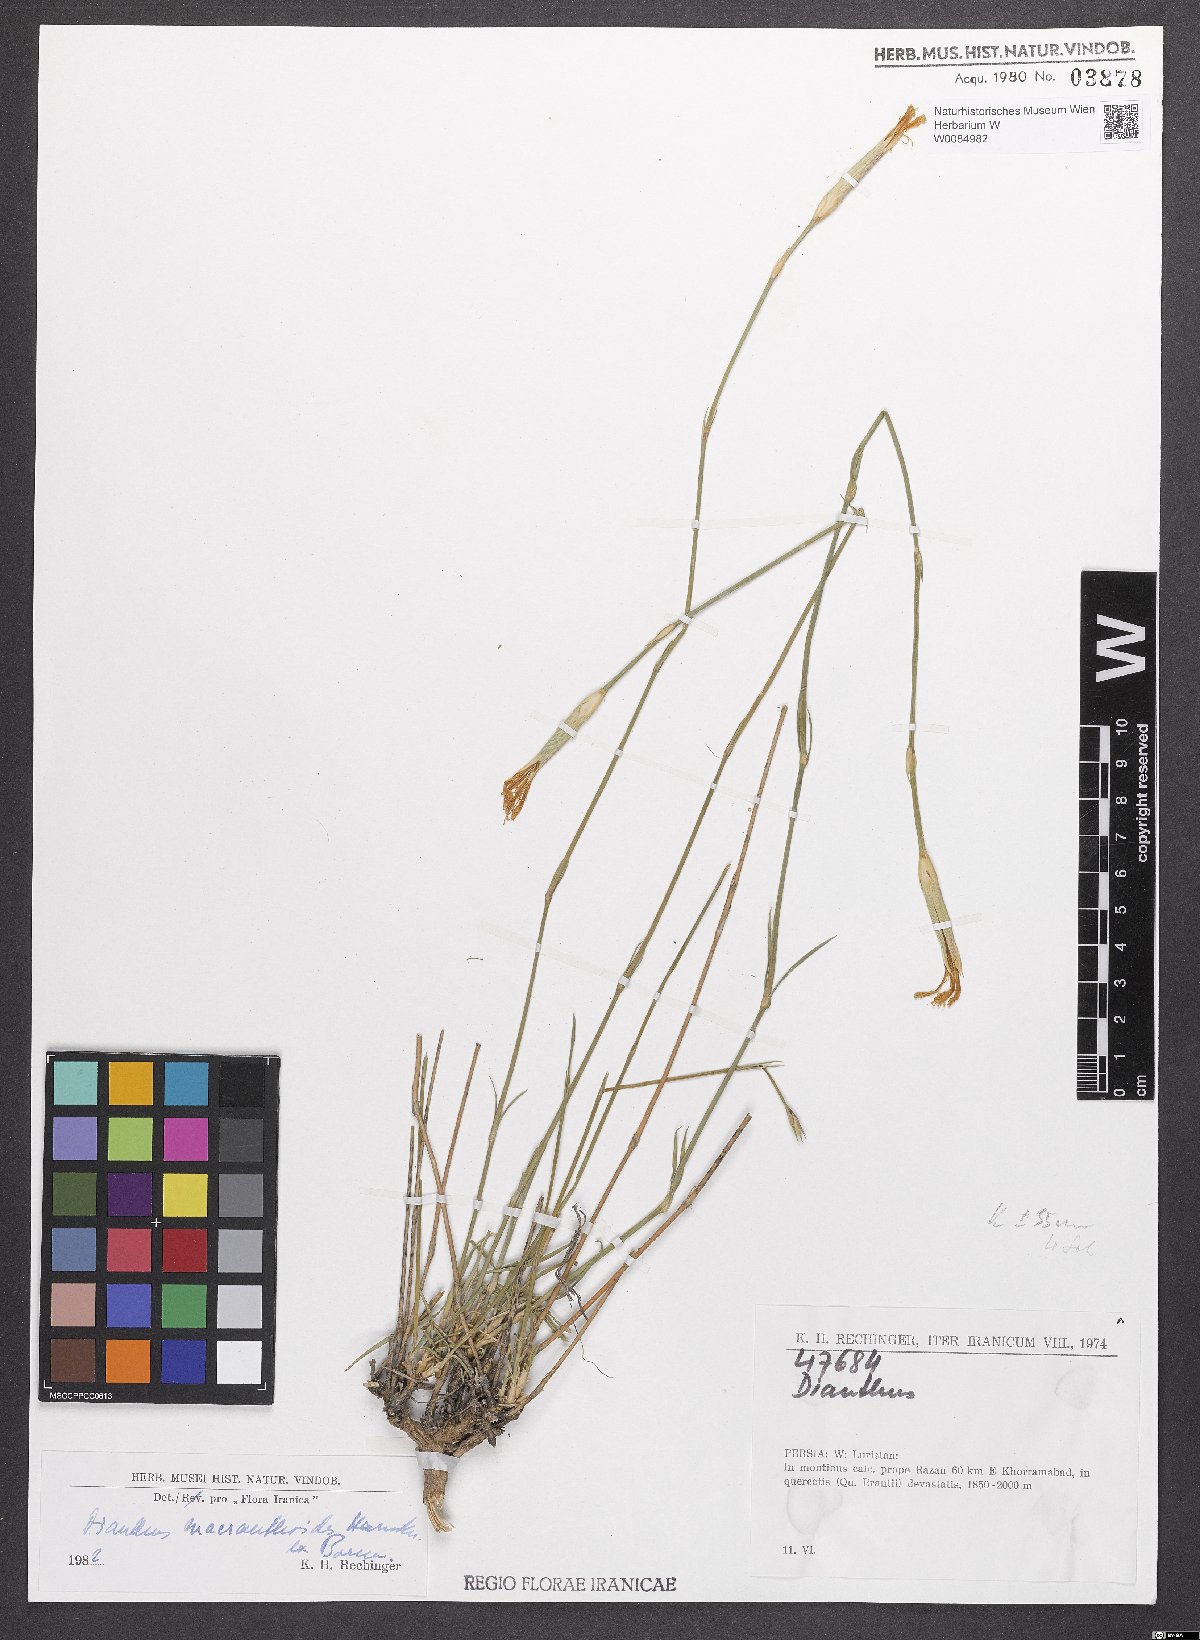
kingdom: Plantae
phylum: Tracheophyta
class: Magnoliopsida
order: Caryophyllales
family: Caryophyllaceae
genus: Dianthus
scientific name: Dianthus macranthoides
